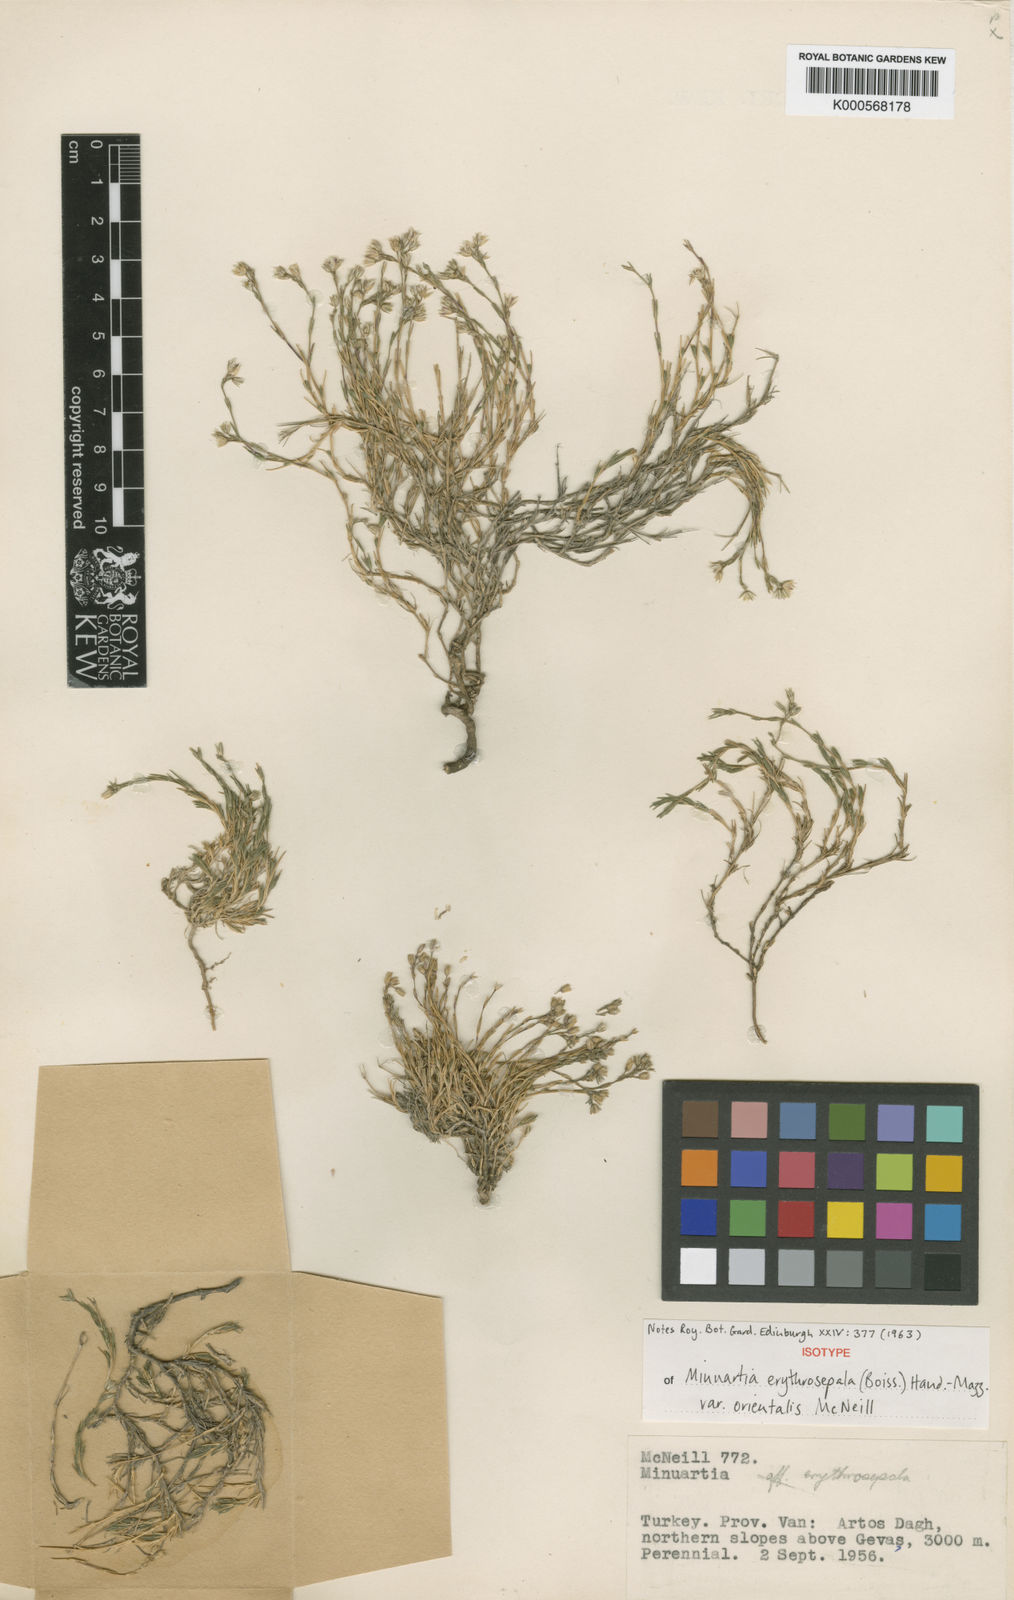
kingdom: Plantae
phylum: Tracheophyta
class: Magnoliopsida
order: Caryophyllales
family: Caryophyllaceae
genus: Minuartia
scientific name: Minuartia erythrosepala
